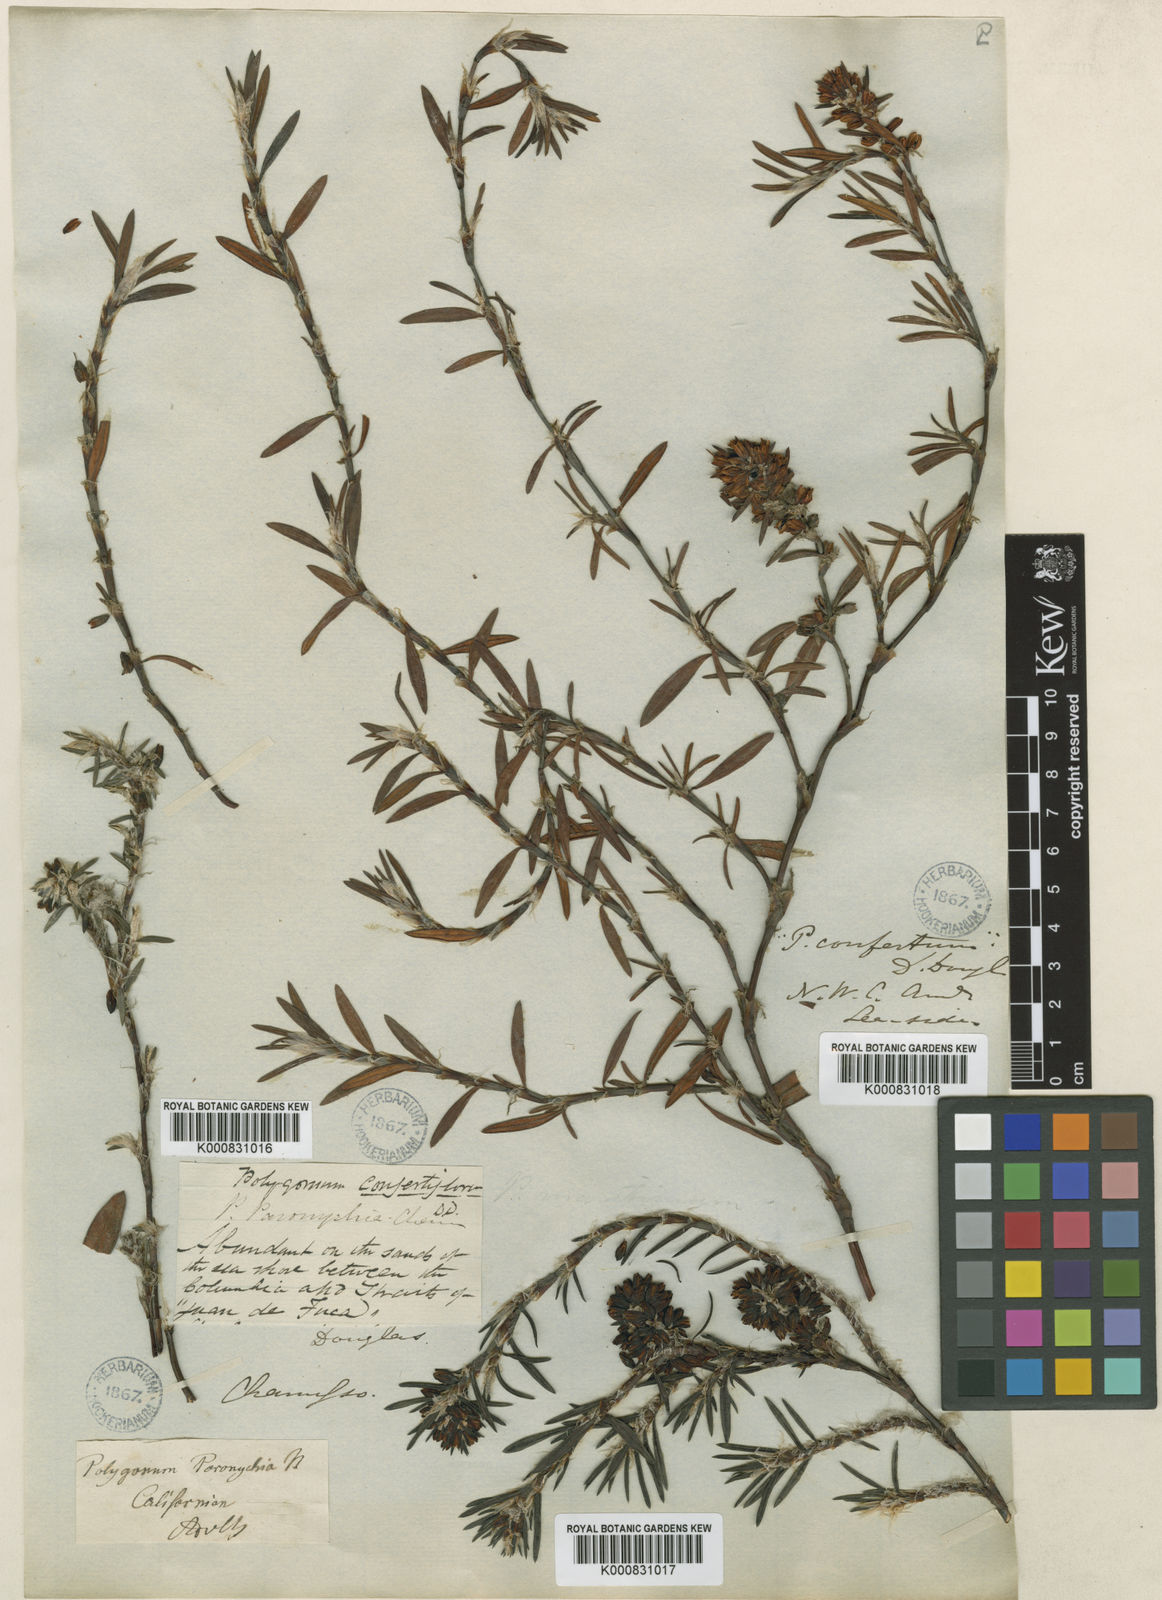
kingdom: Plantae
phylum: Tracheophyta
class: Magnoliopsida
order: Caryophyllales
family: Polygonaceae
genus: Polygonum
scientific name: Polygonum
